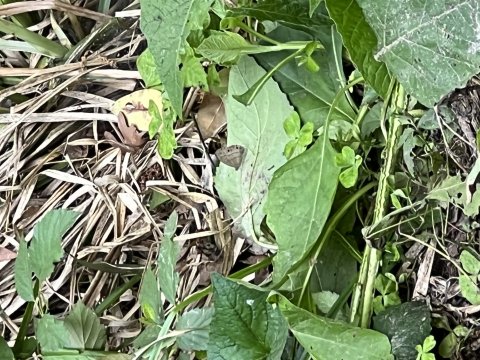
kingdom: Animalia
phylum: Arthropoda
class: Insecta
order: Lepidoptera
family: Nymphalidae
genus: Hermeuptychia
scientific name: Hermeuptychia hermes
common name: Carolina Satyr
